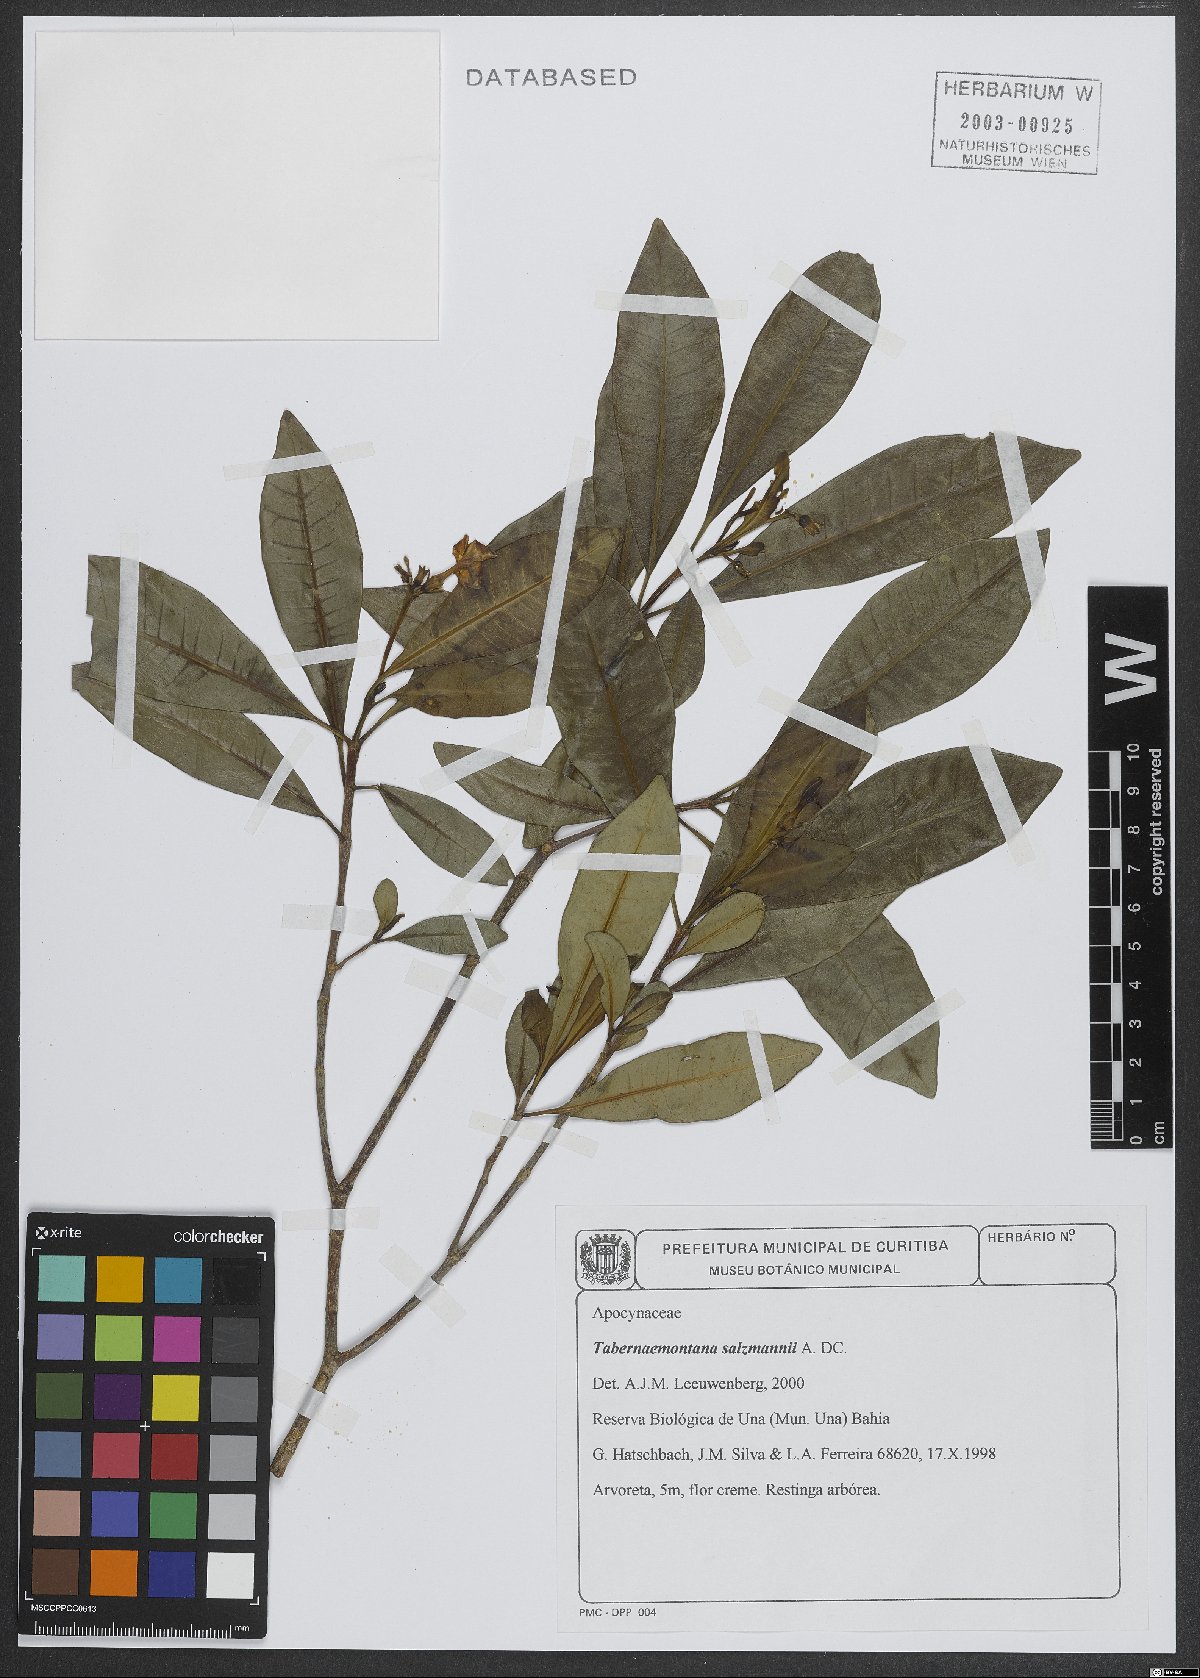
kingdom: Plantae
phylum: Tracheophyta
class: Magnoliopsida
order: Gentianales
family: Apocynaceae
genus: Tabernaemontana
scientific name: Tabernaemontana salzmannii
